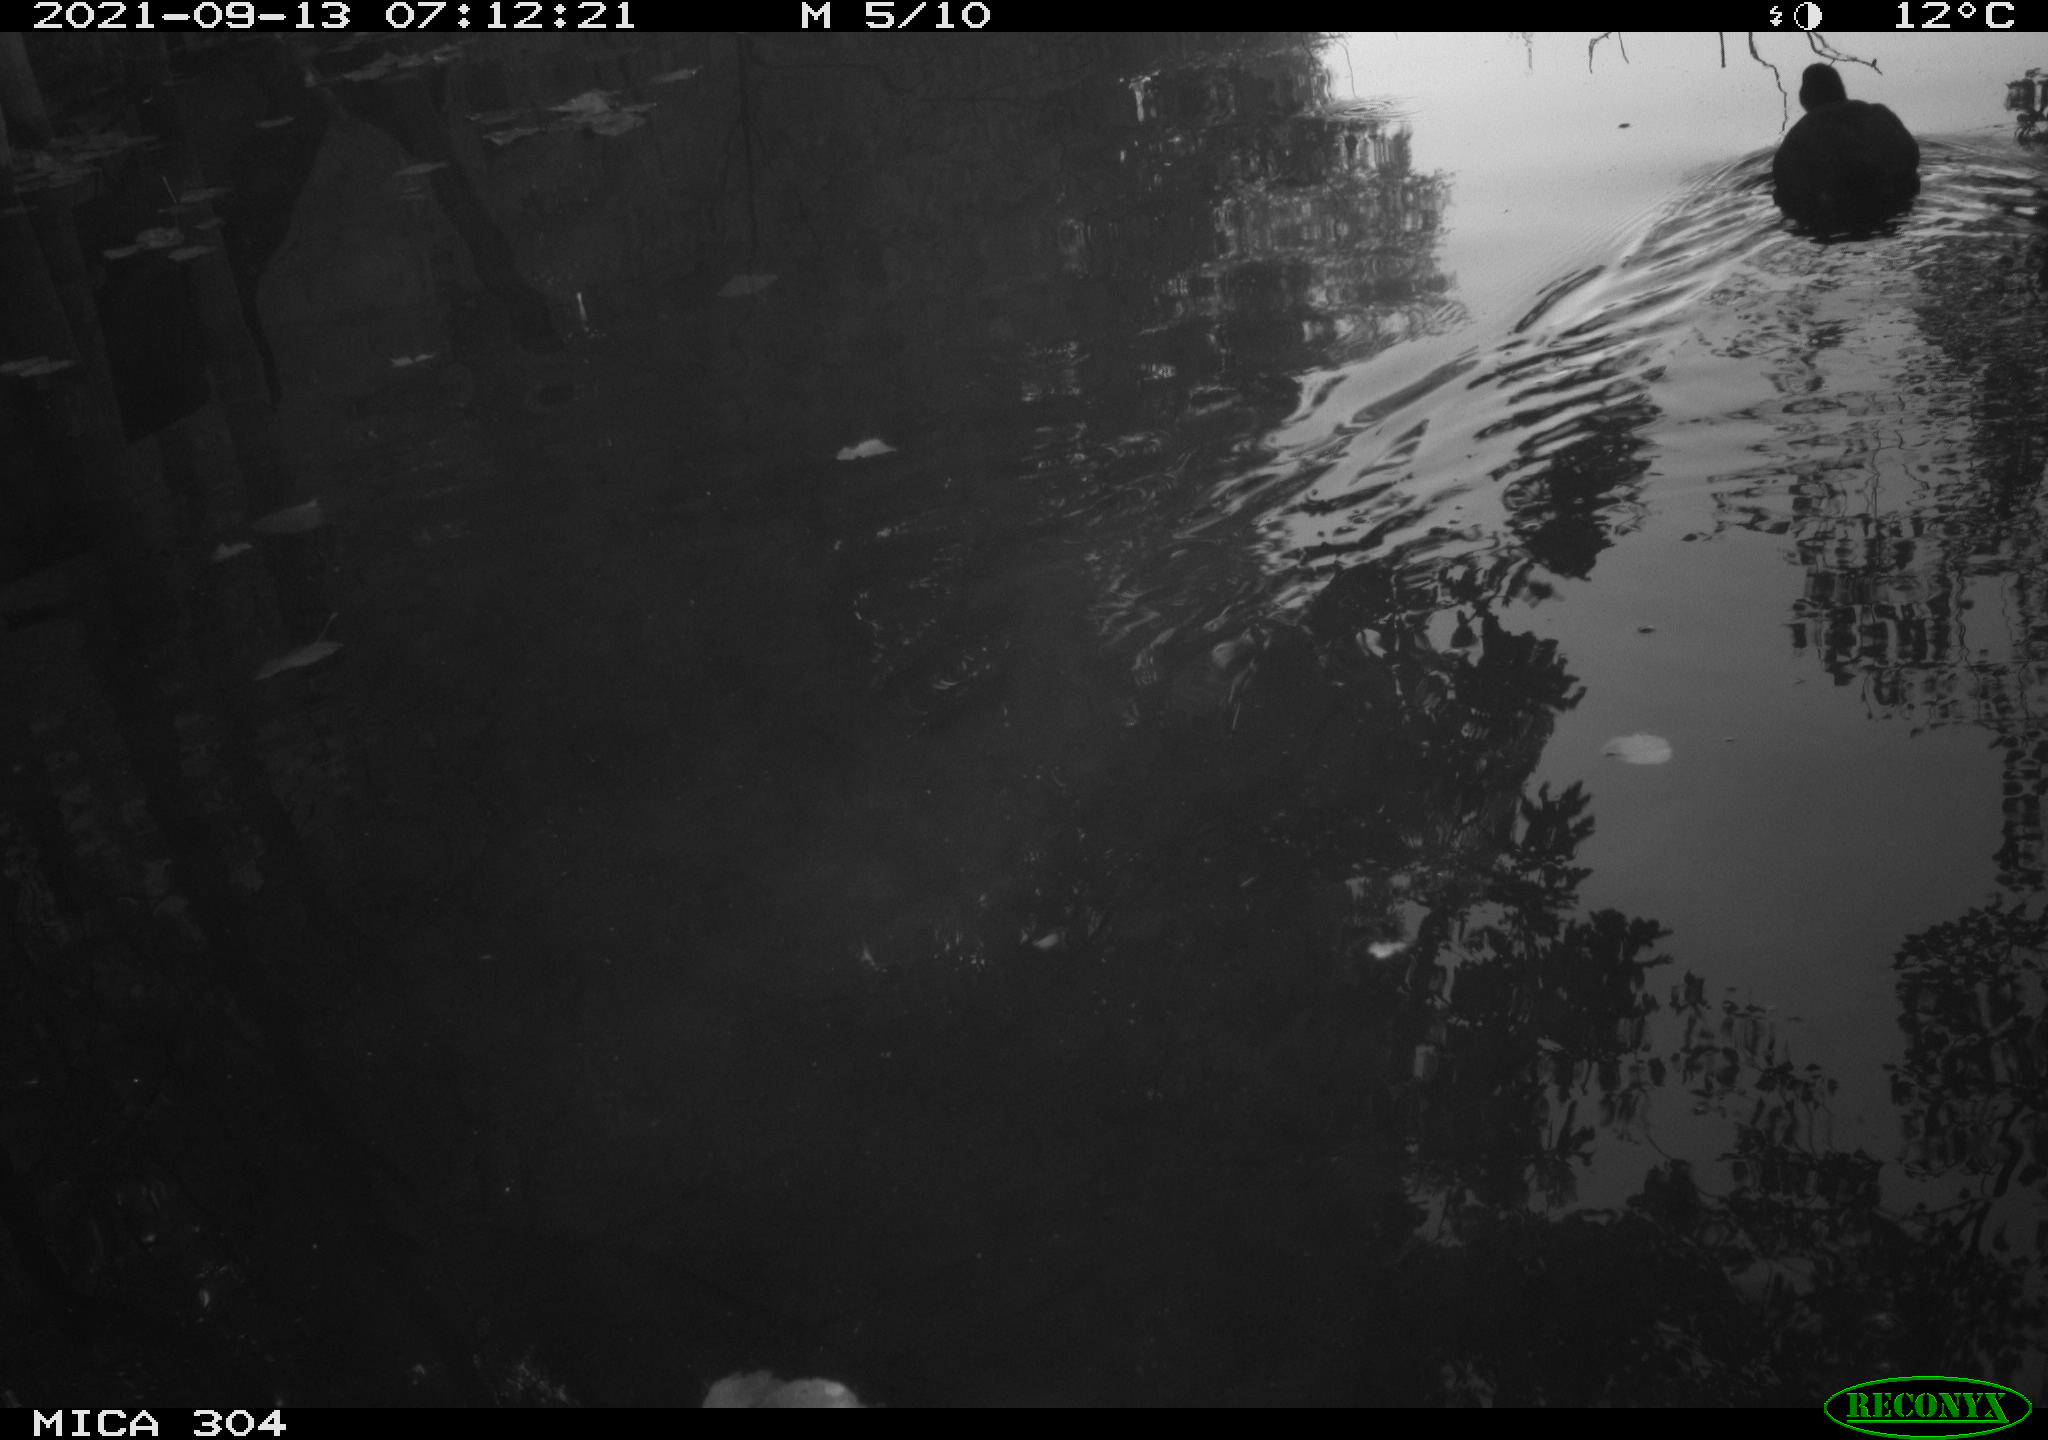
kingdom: Animalia
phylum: Chordata
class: Aves
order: Gruiformes
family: Rallidae
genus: Fulica
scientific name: Fulica atra
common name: Eurasian coot
